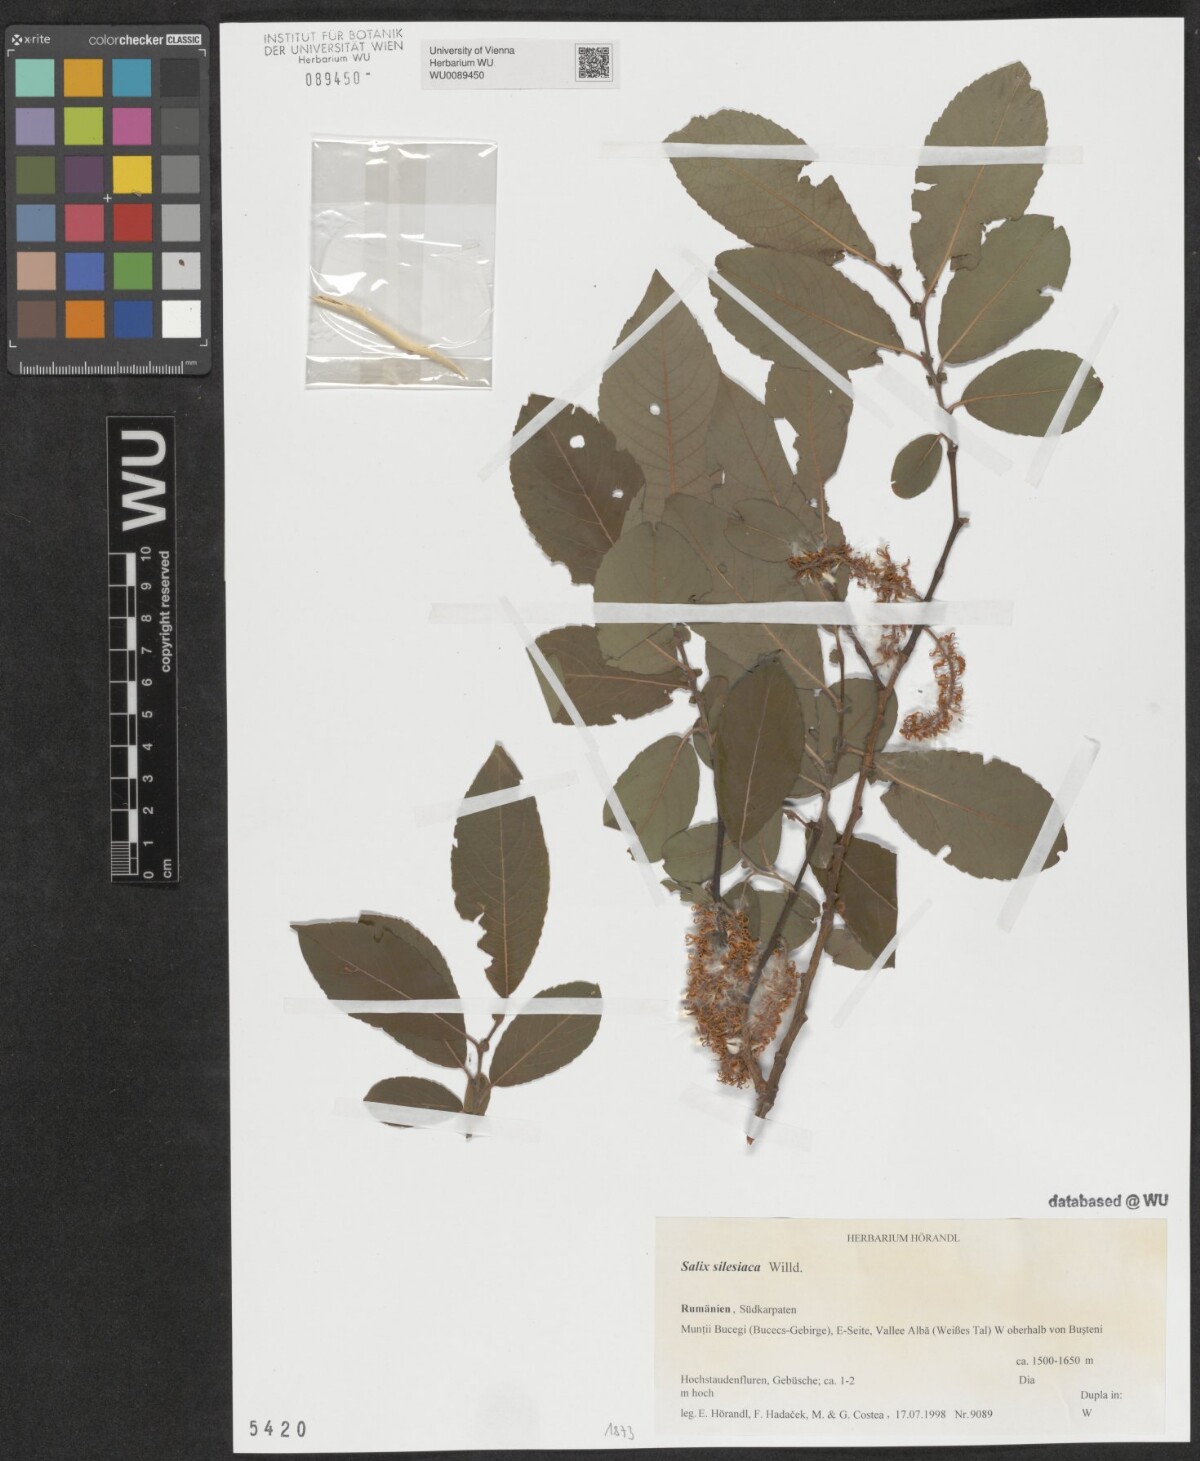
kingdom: Plantae
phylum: Tracheophyta
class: Magnoliopsida
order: Malpighiales
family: Salicaceae
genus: Salix
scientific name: Salix silesiaca
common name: Silesian willow
